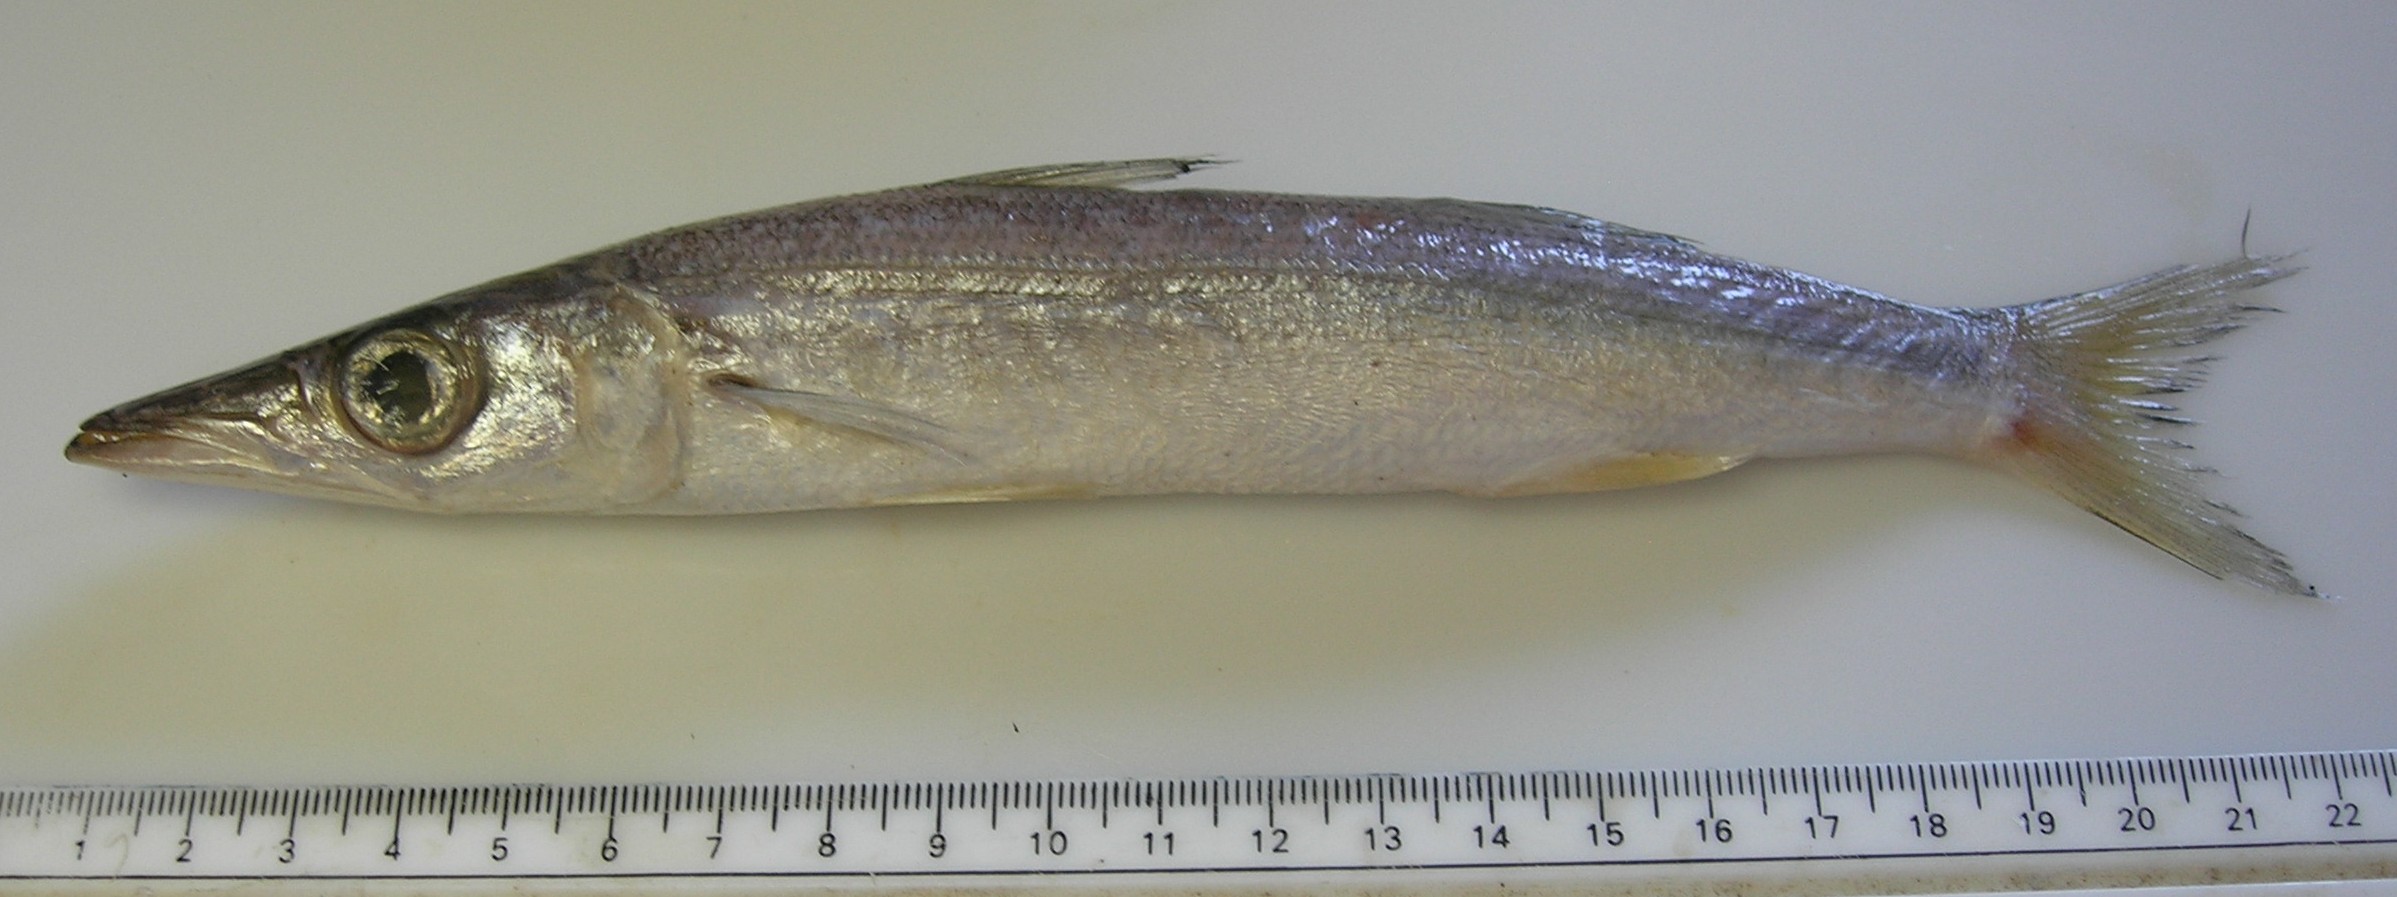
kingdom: Animalia
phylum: Chordata
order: Perciformes
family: Sphyraenidae
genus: Sphyraena
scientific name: Sphyraena obtusata
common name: Obtuse barracuda
